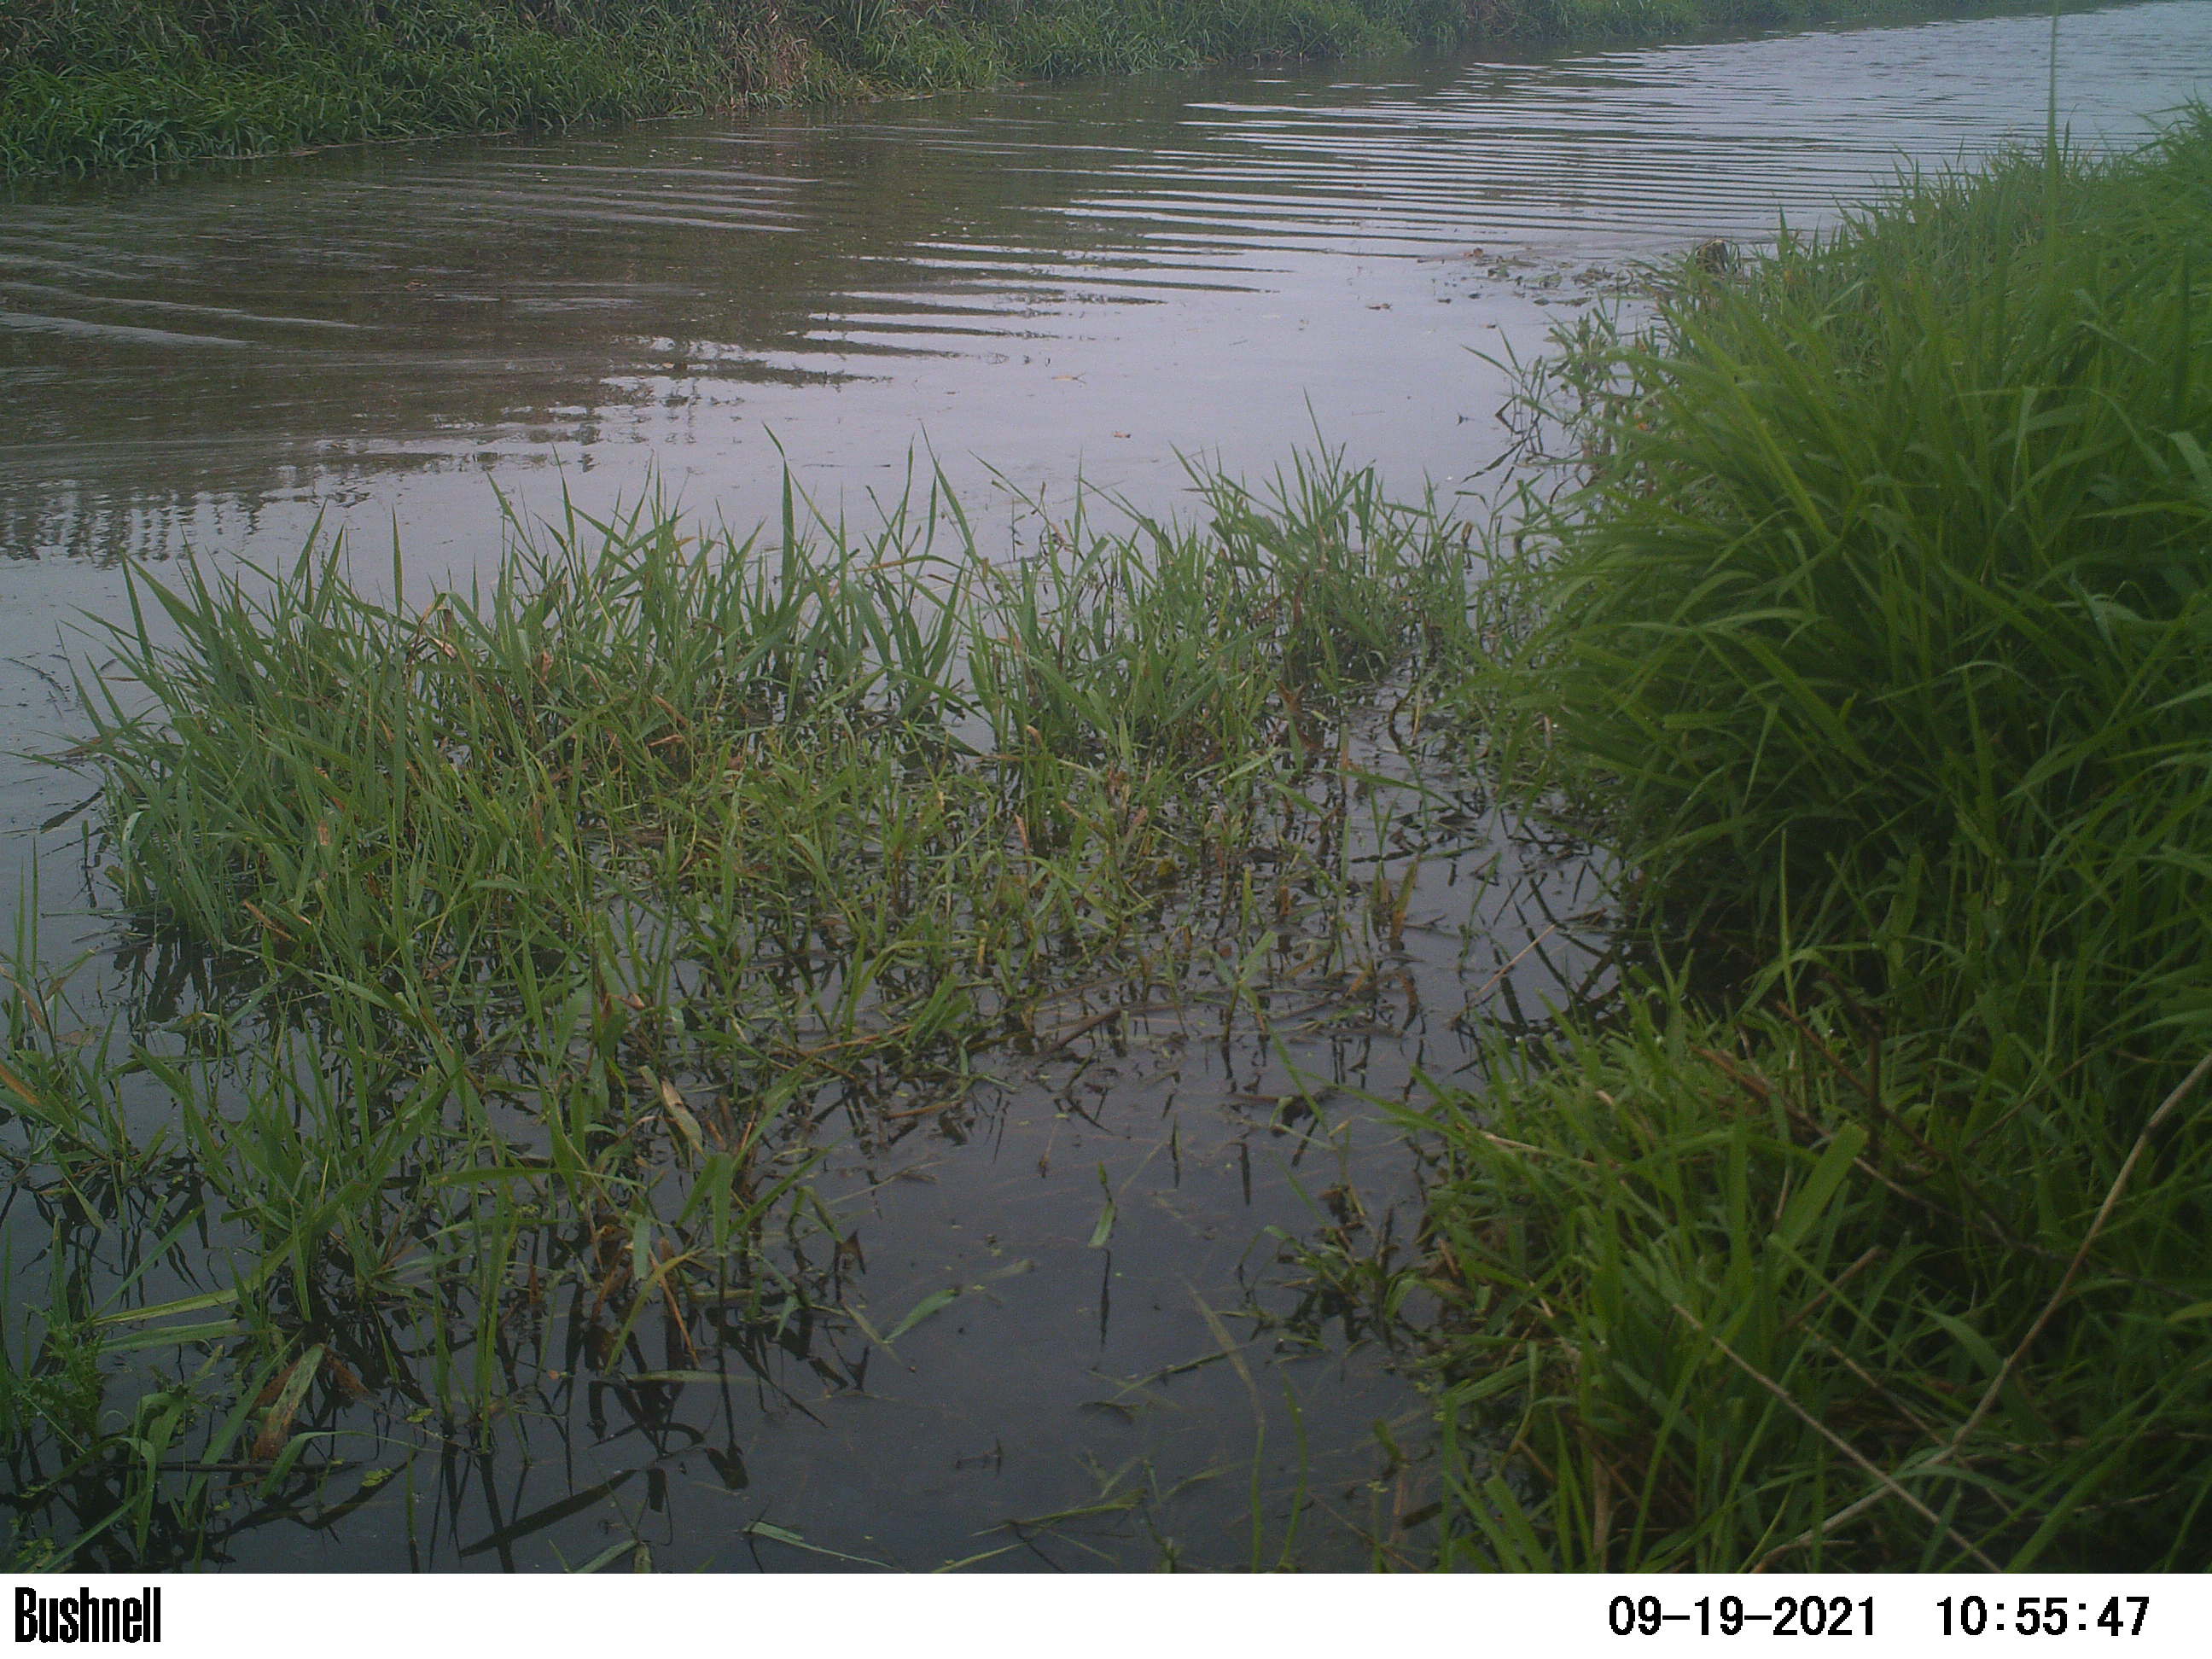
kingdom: Animalia
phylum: Chordata
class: Aves
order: Gruiformes
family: Rallidae
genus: Fulica
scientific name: Fulica atra
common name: Eurasian coot
